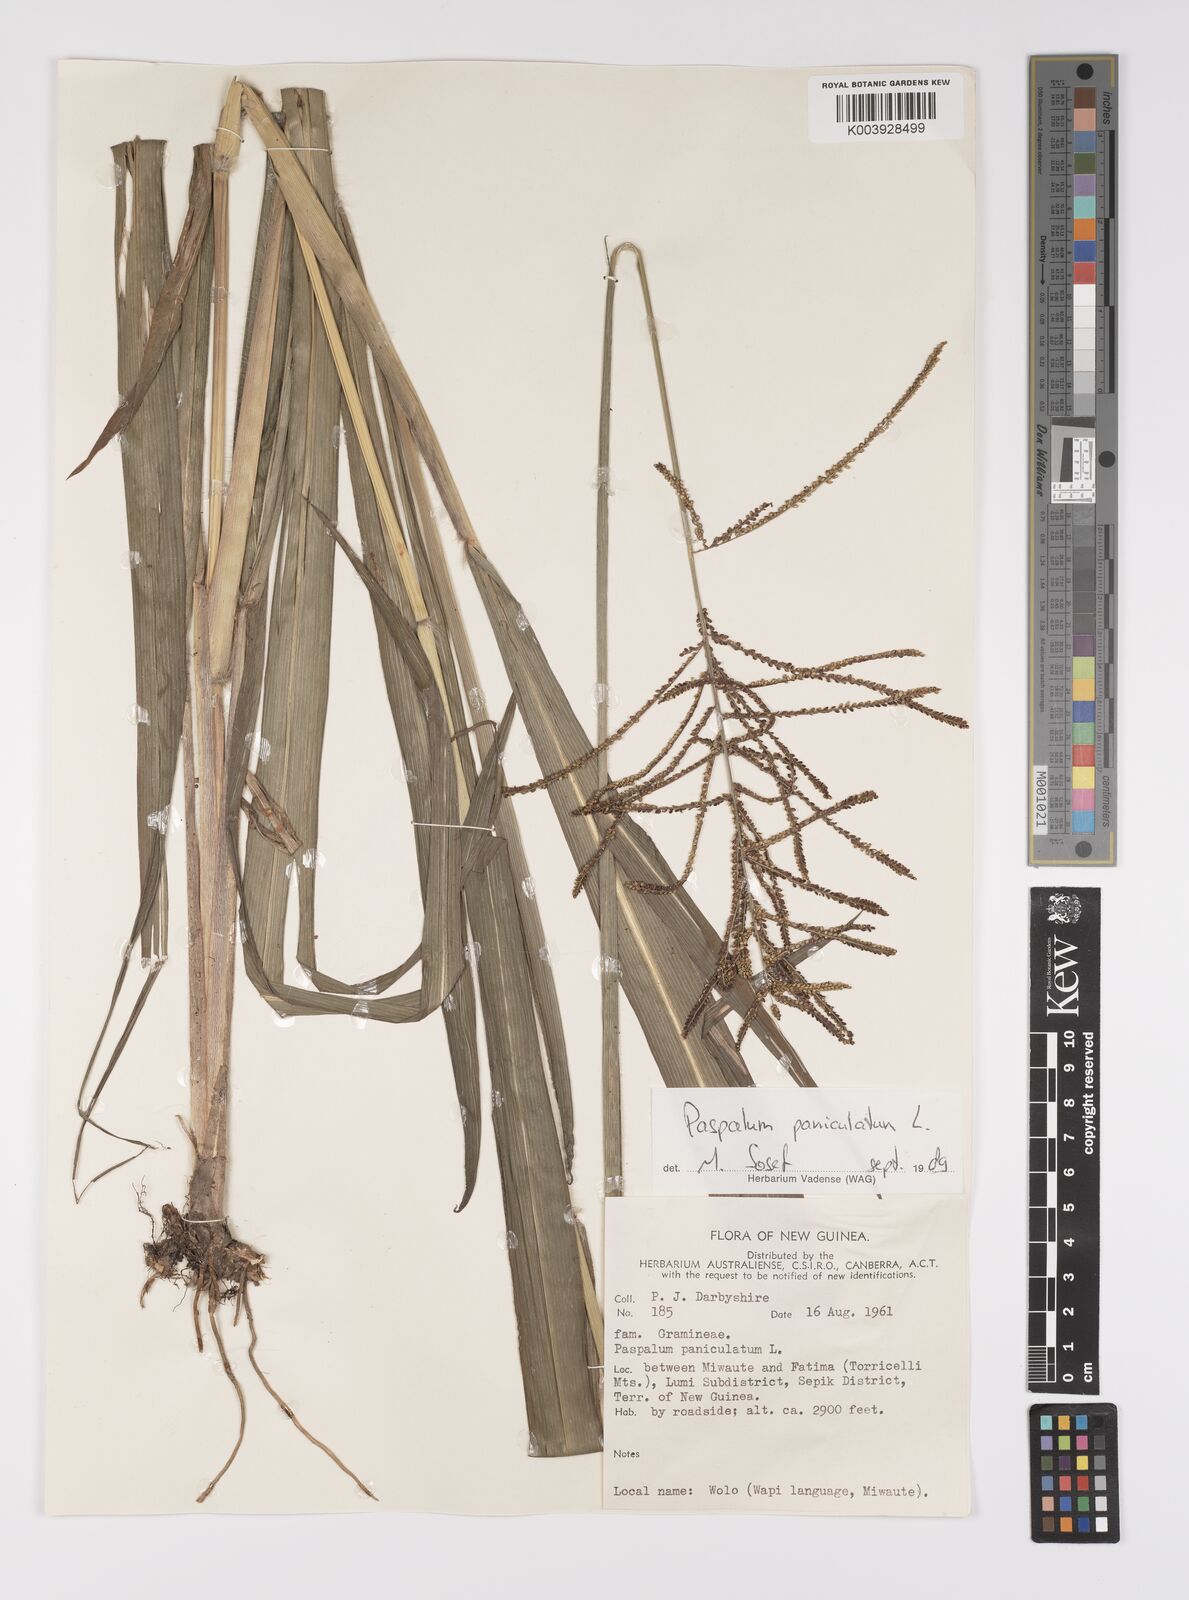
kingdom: Plantae
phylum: Tracheophyta
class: Liliopsida
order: Poales
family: Poaceae
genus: Paspalum
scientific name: Paspalum paniculatum
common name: Arrocillo
